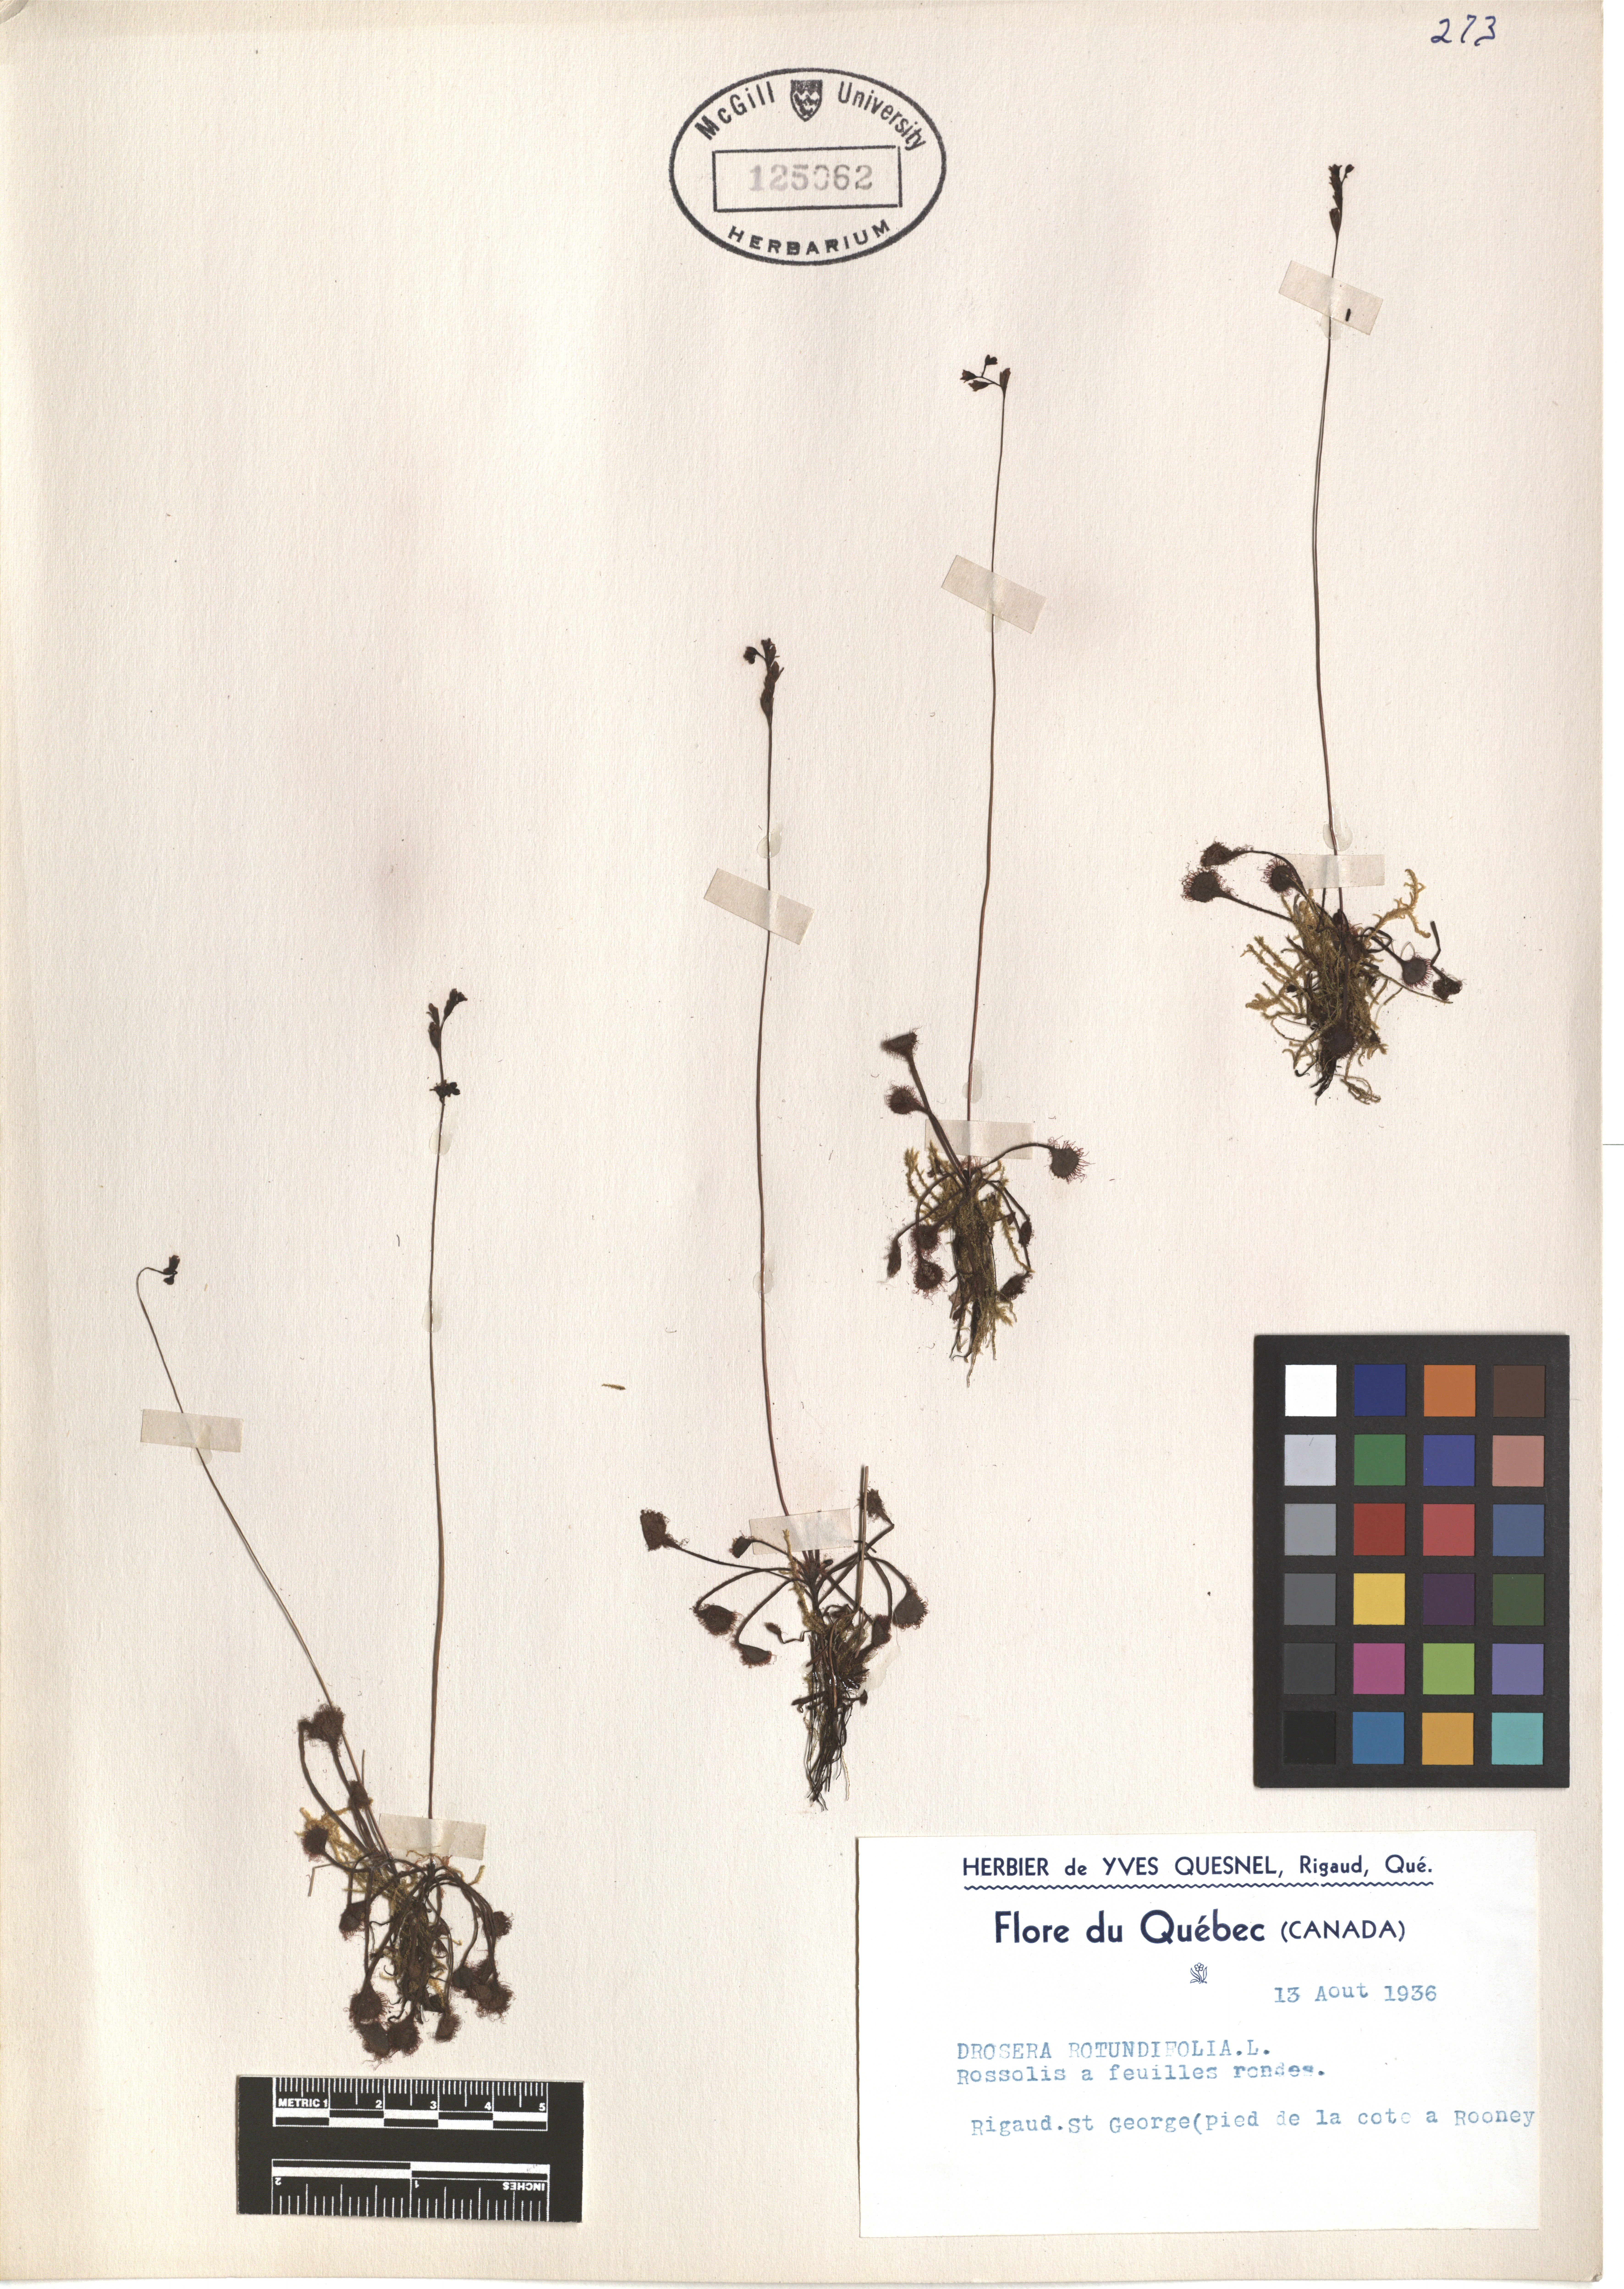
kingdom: Plantae
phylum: Tracheophyta
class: Magnoliopsida
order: Caryophyllales
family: Droseraceae
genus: Drosera
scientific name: Drosera rotundifolia
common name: Round-leaved sundew
